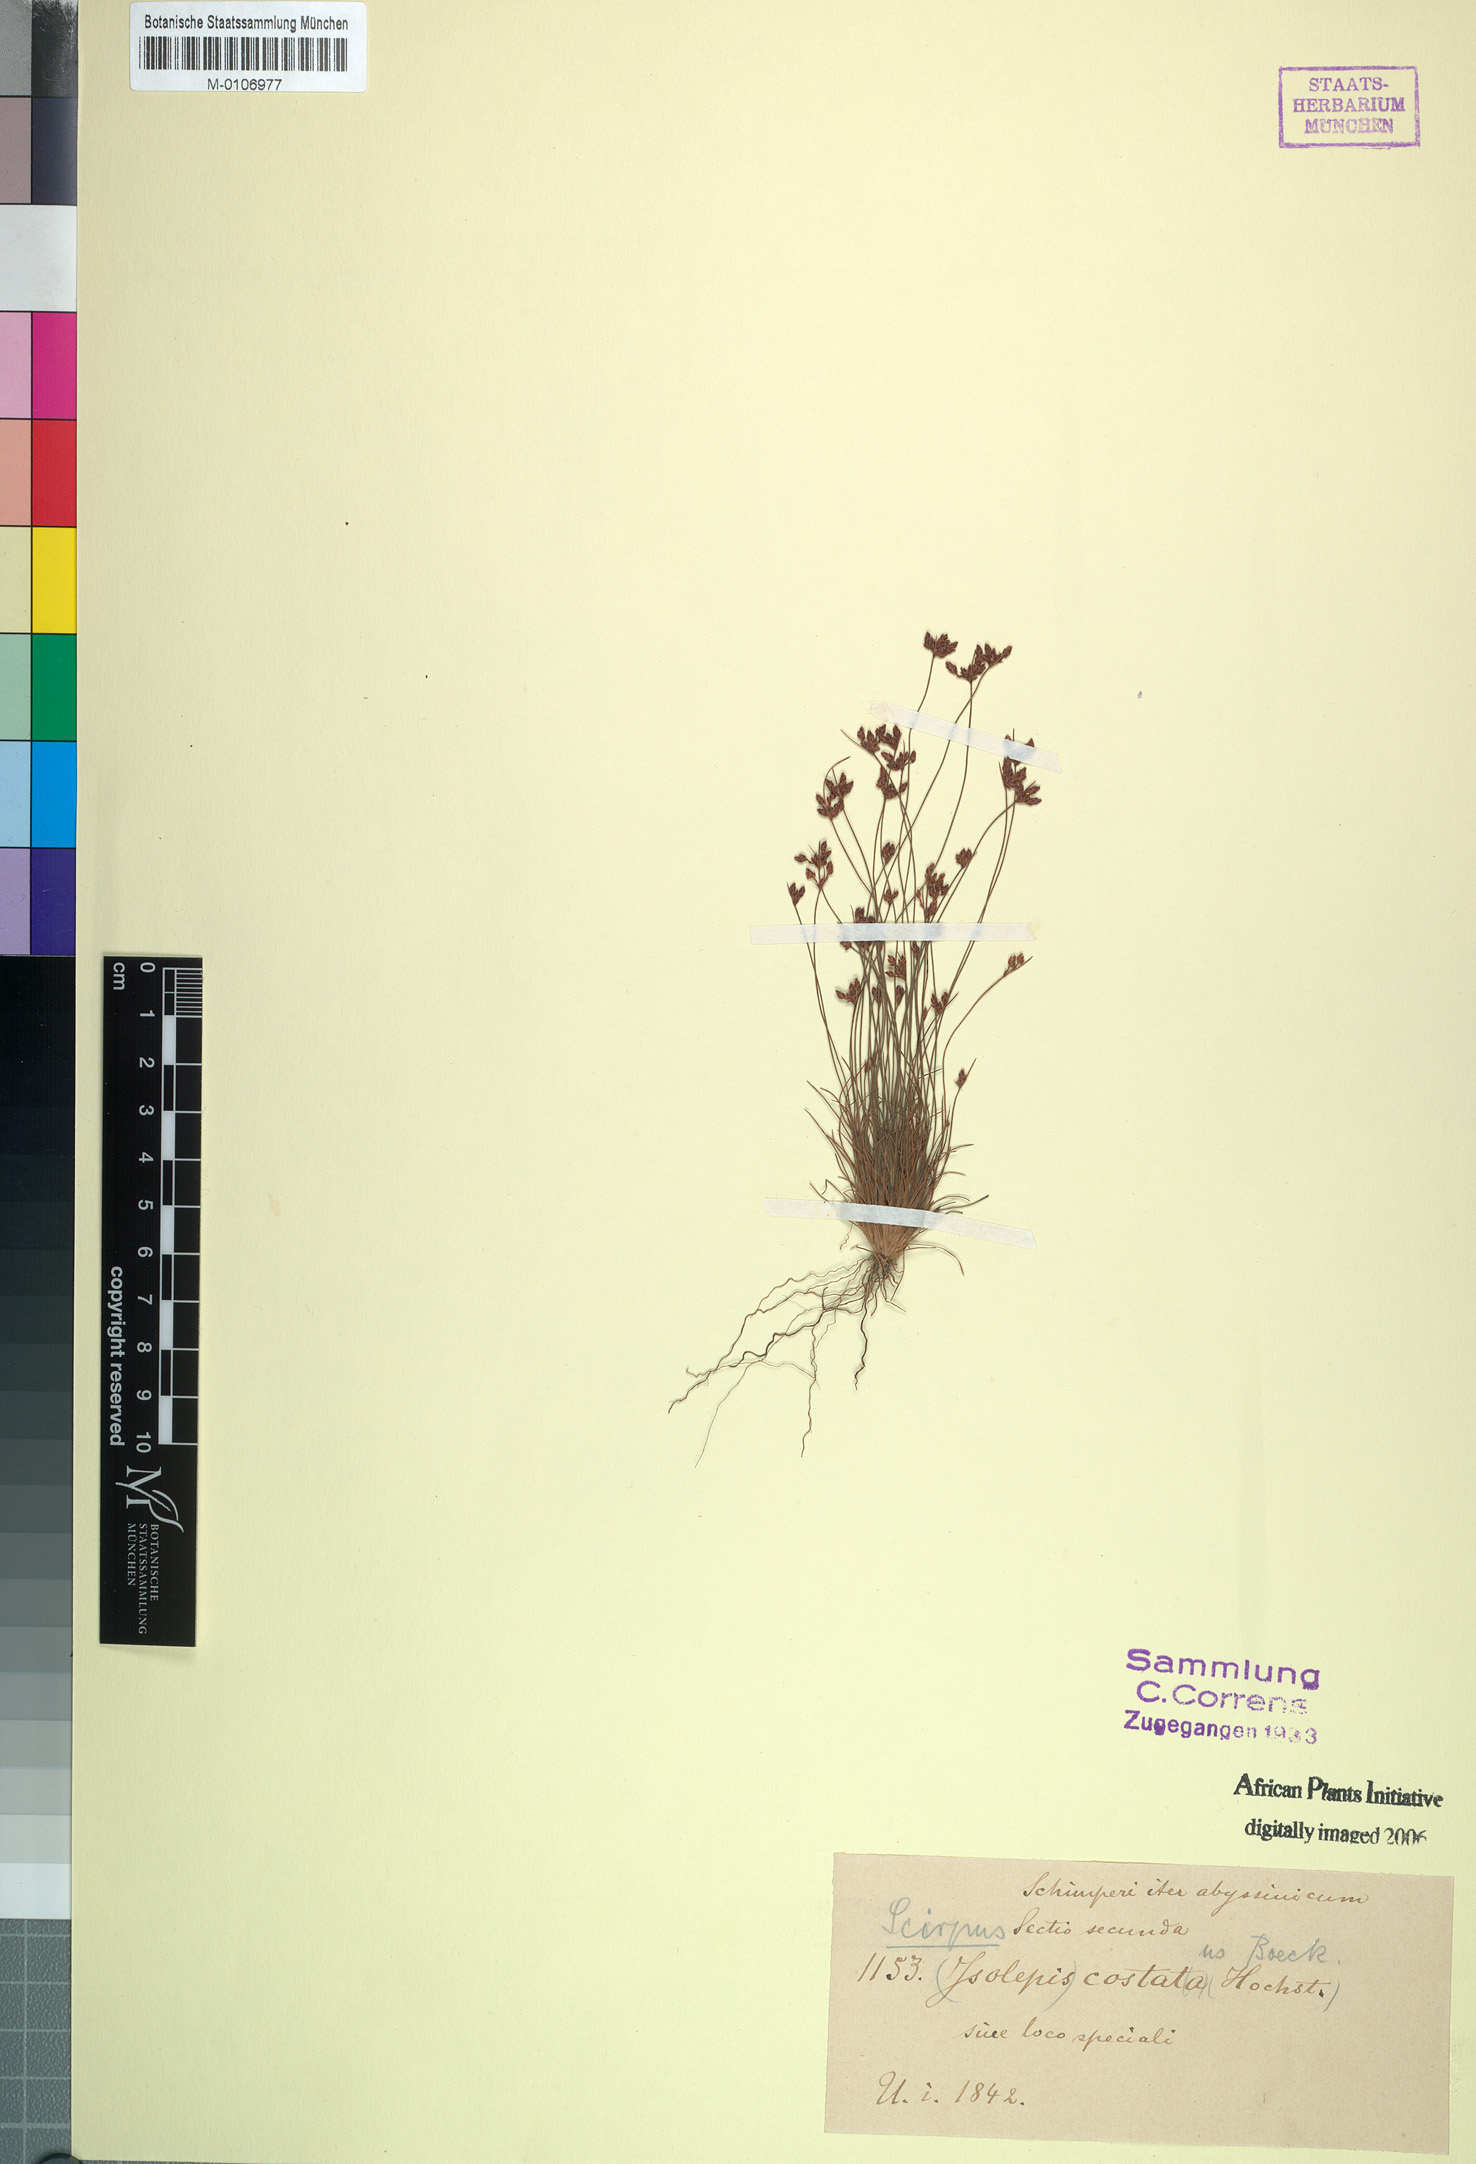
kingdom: Plantae
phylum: Tracheophyta
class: Liliopsida
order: Poales
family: Cyperaceae
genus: Isolepis
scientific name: Isolepis costata
